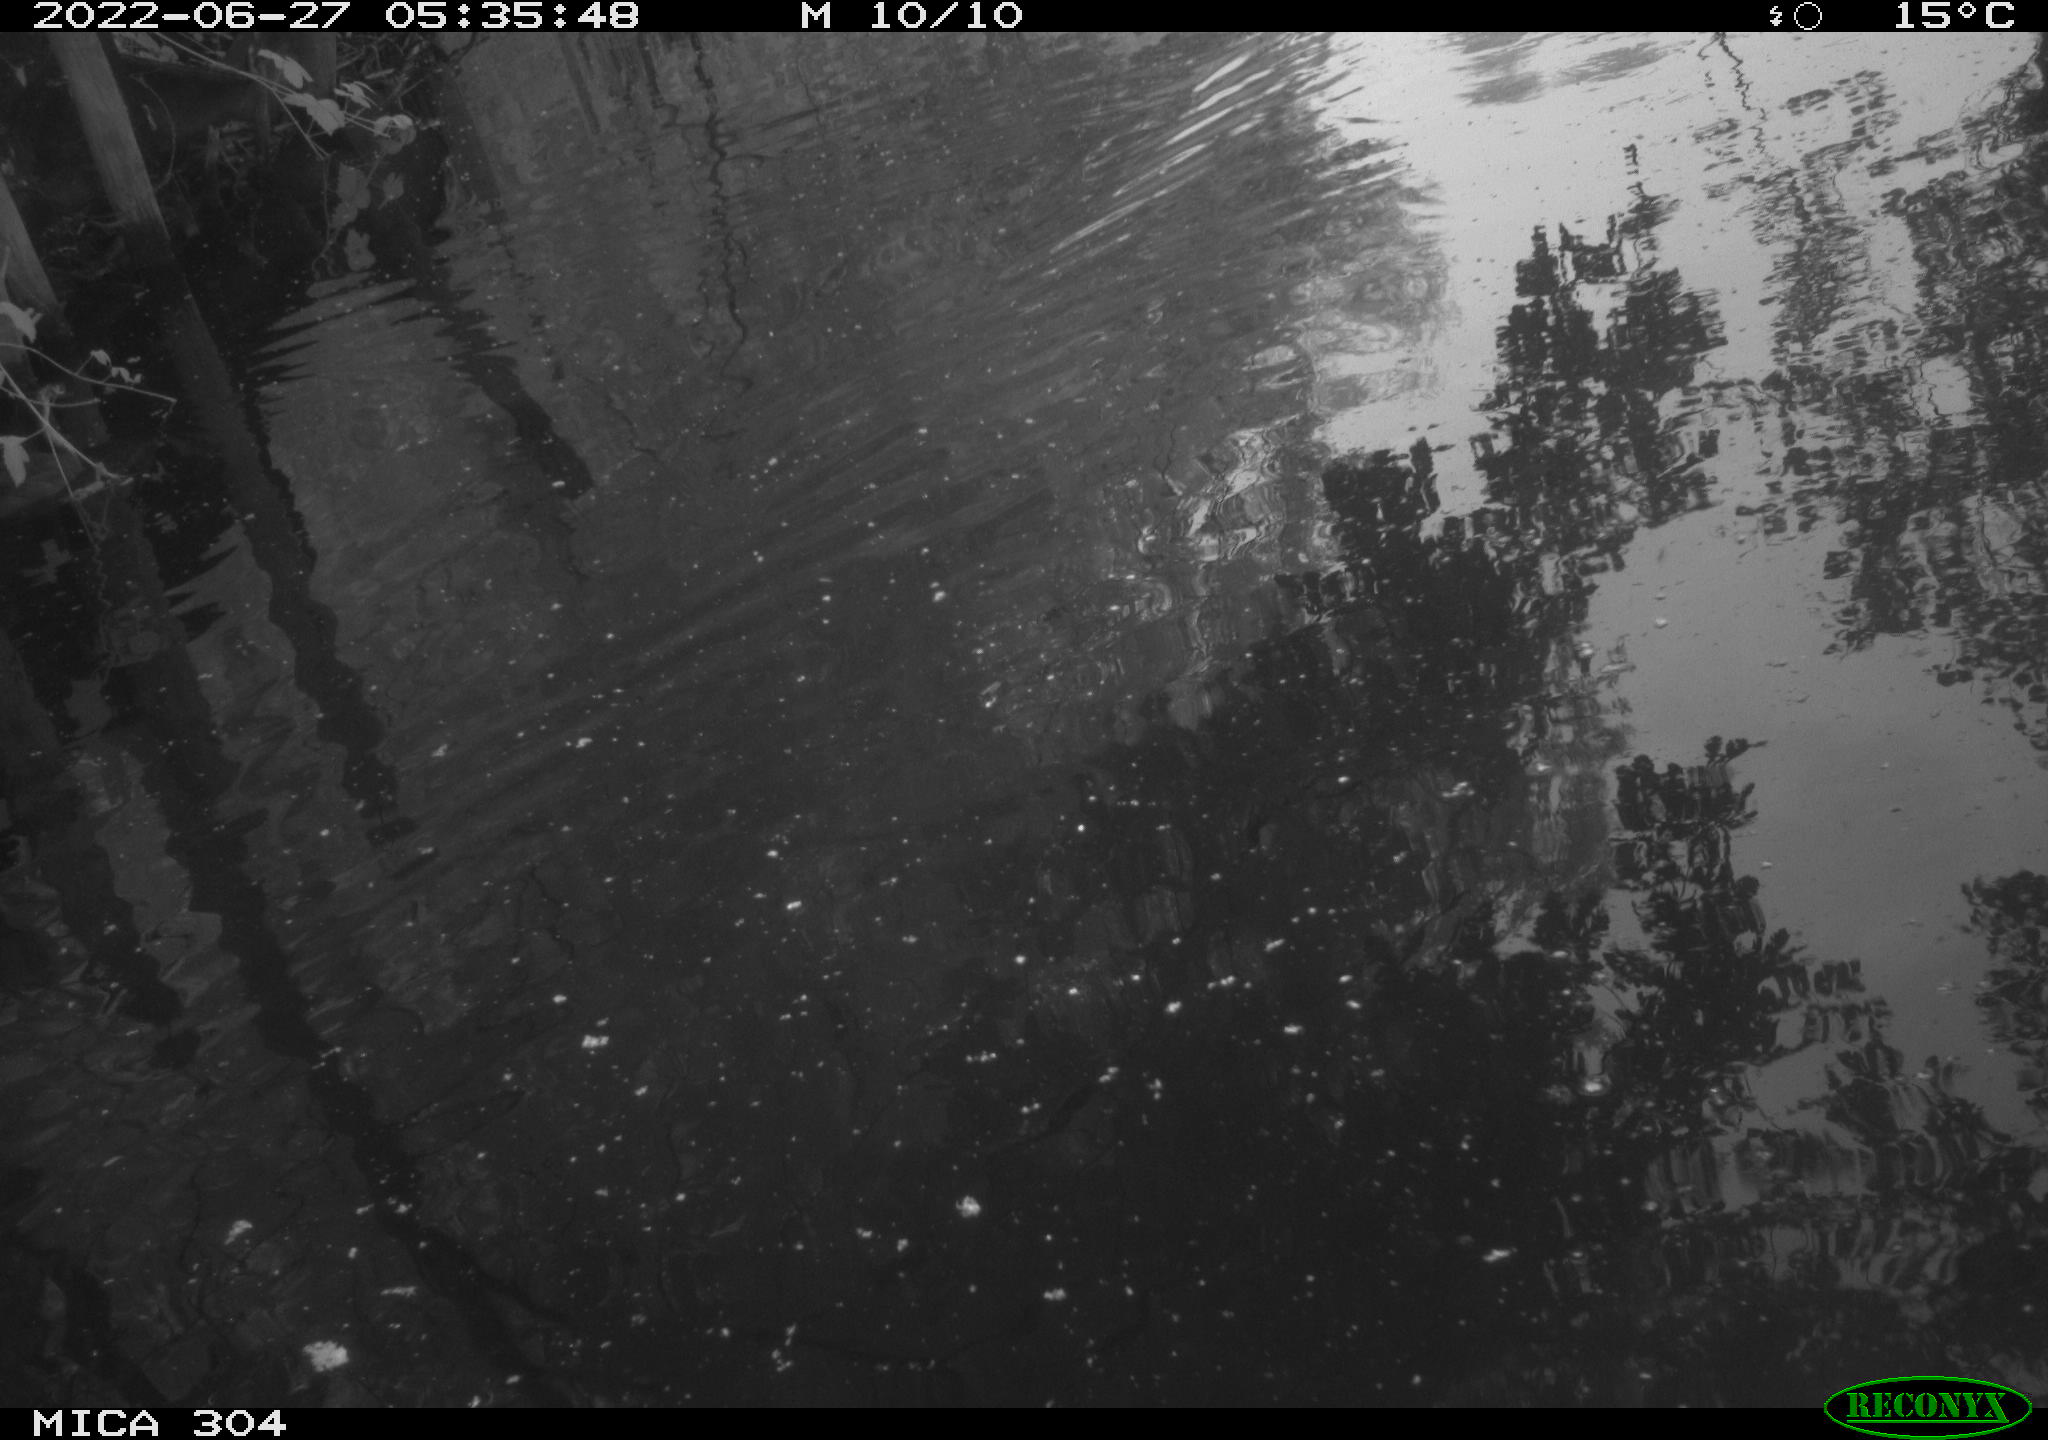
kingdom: Animalia
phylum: Chordata
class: Aves
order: Anseriformes
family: Anatidae
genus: Anas
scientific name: Anas platyrhynchos
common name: Mallard
